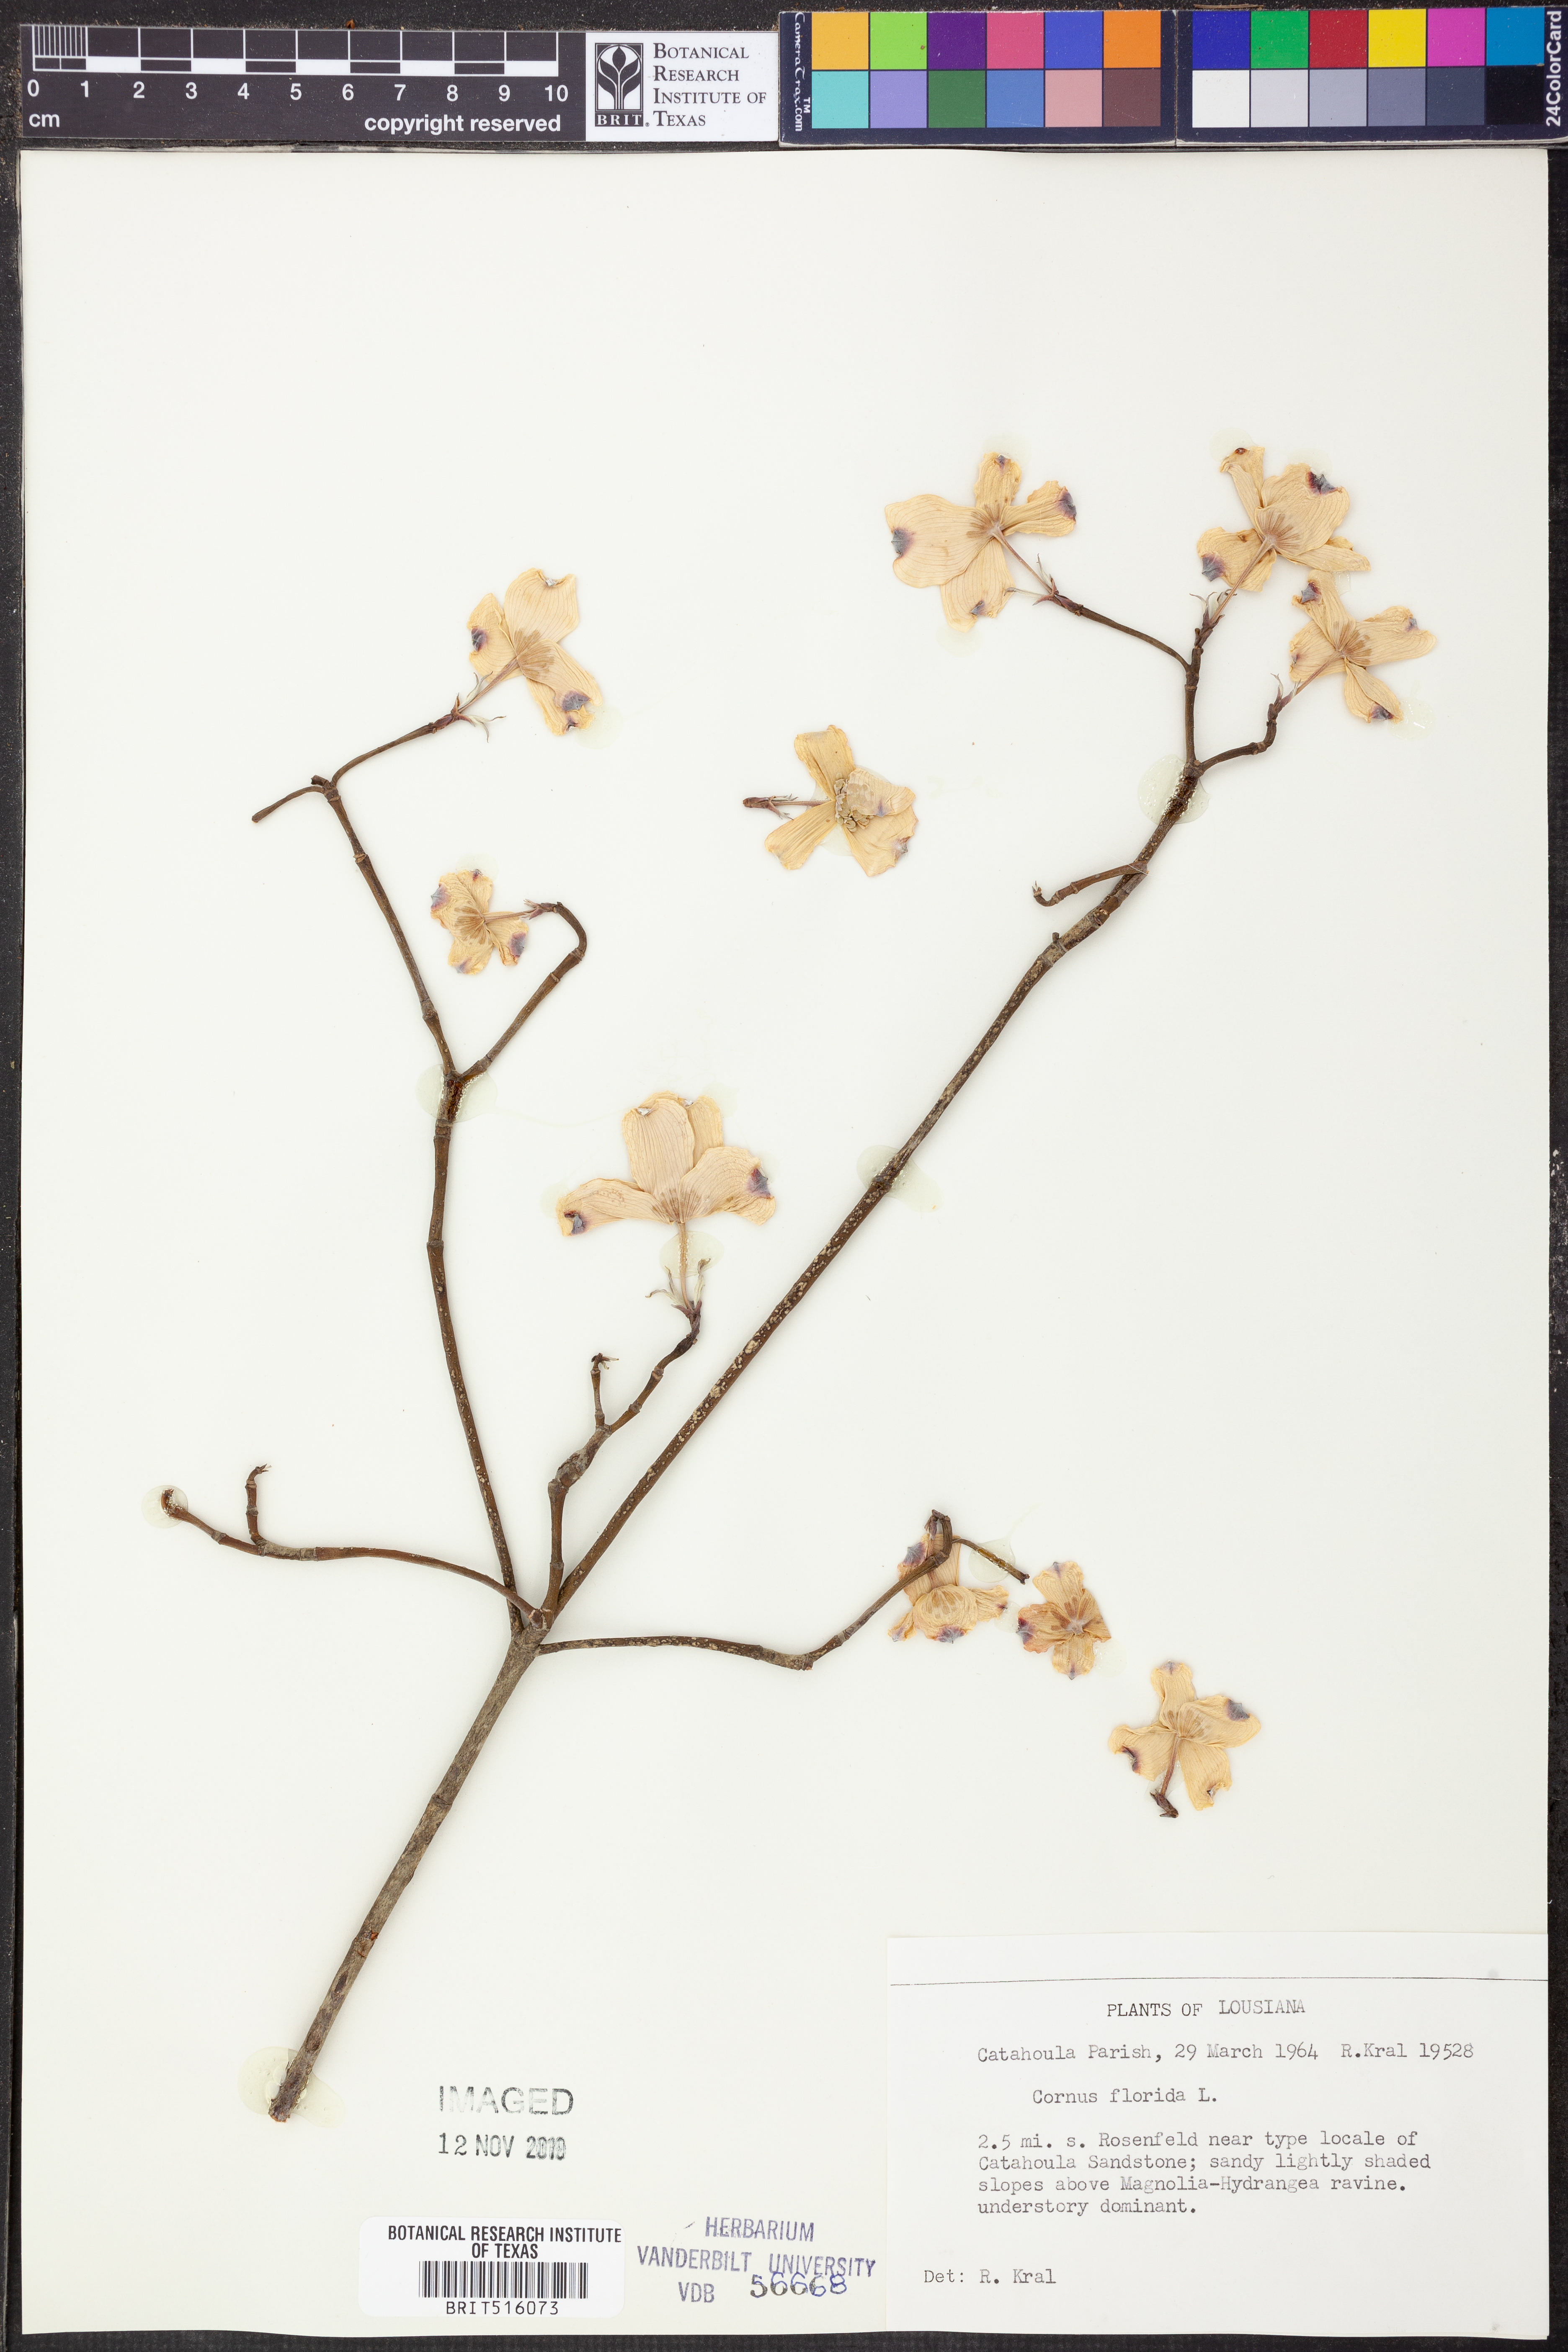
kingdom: Plantae
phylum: Tracheophyta
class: Magnoliopsida
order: Cornales
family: Cornaceae
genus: Cornus
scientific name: Cornus florida
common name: Flowering dogwood
